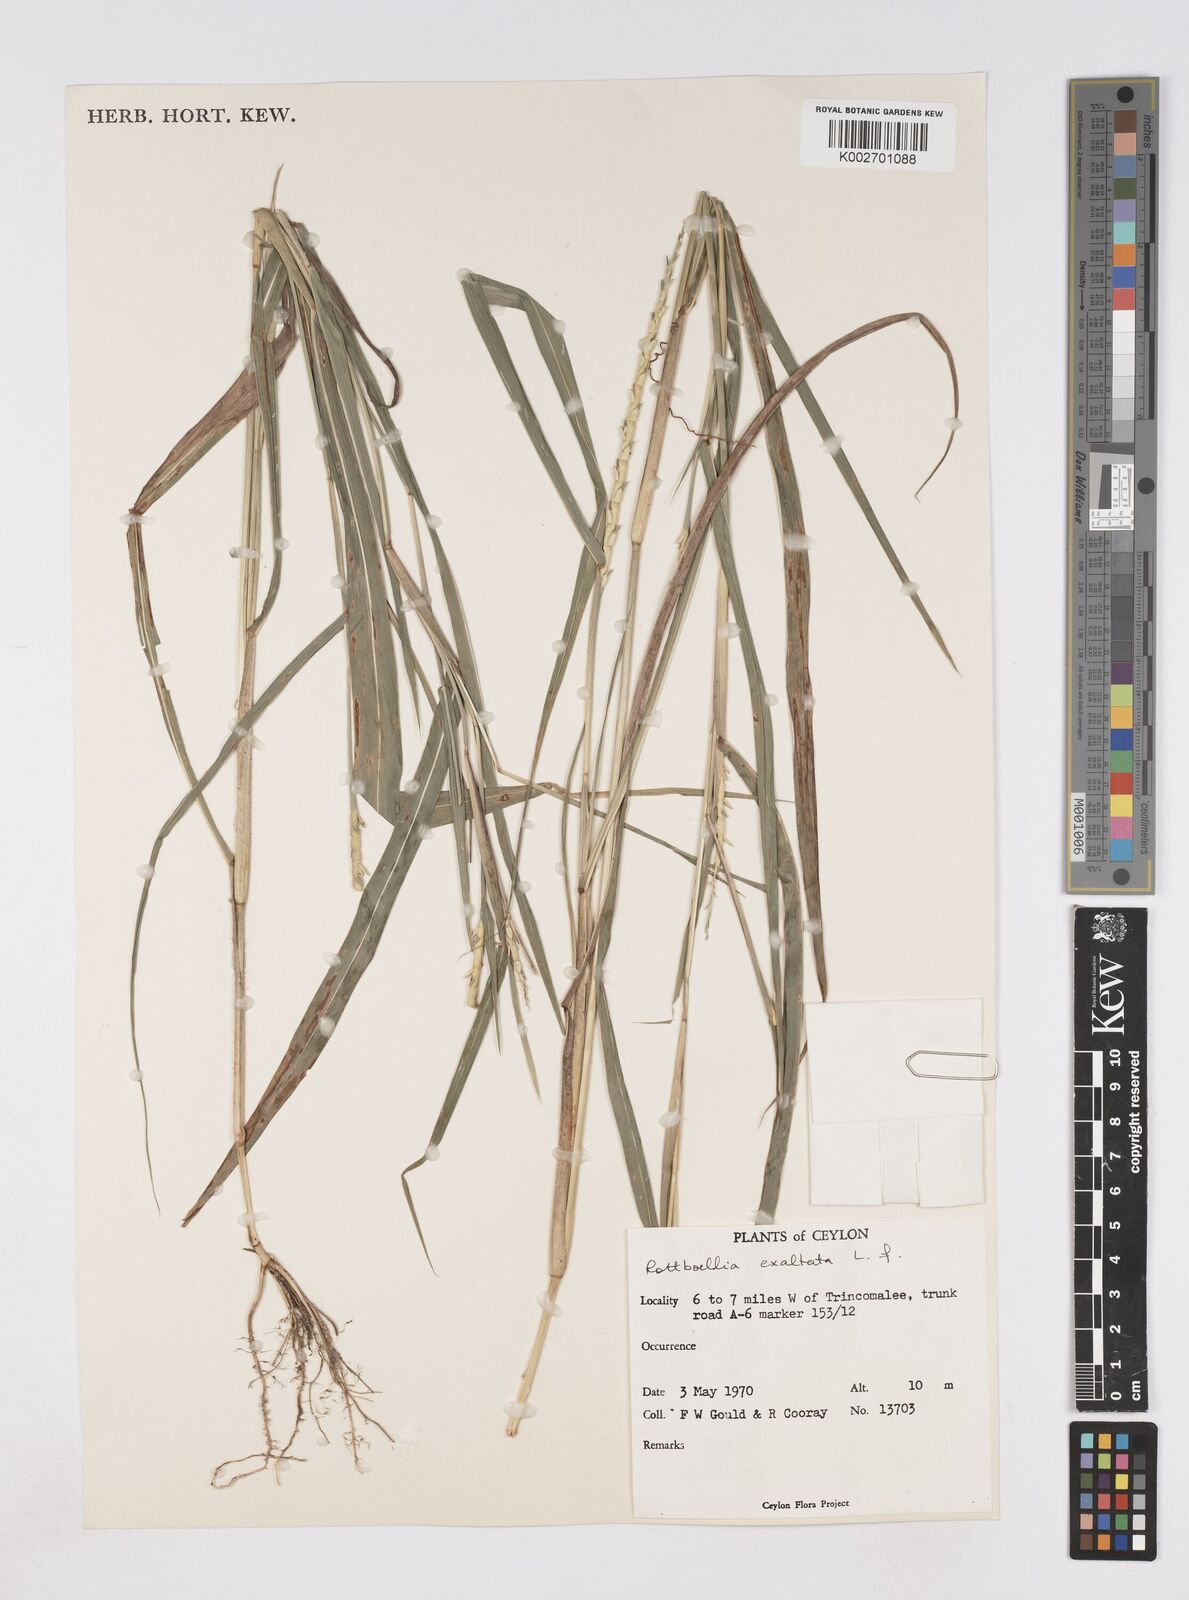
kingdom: Plantae
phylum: Tracheophyta
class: Liliopsida
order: Poales
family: Poaceae
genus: Ophiuros
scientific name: Ophiuros exaltatus
